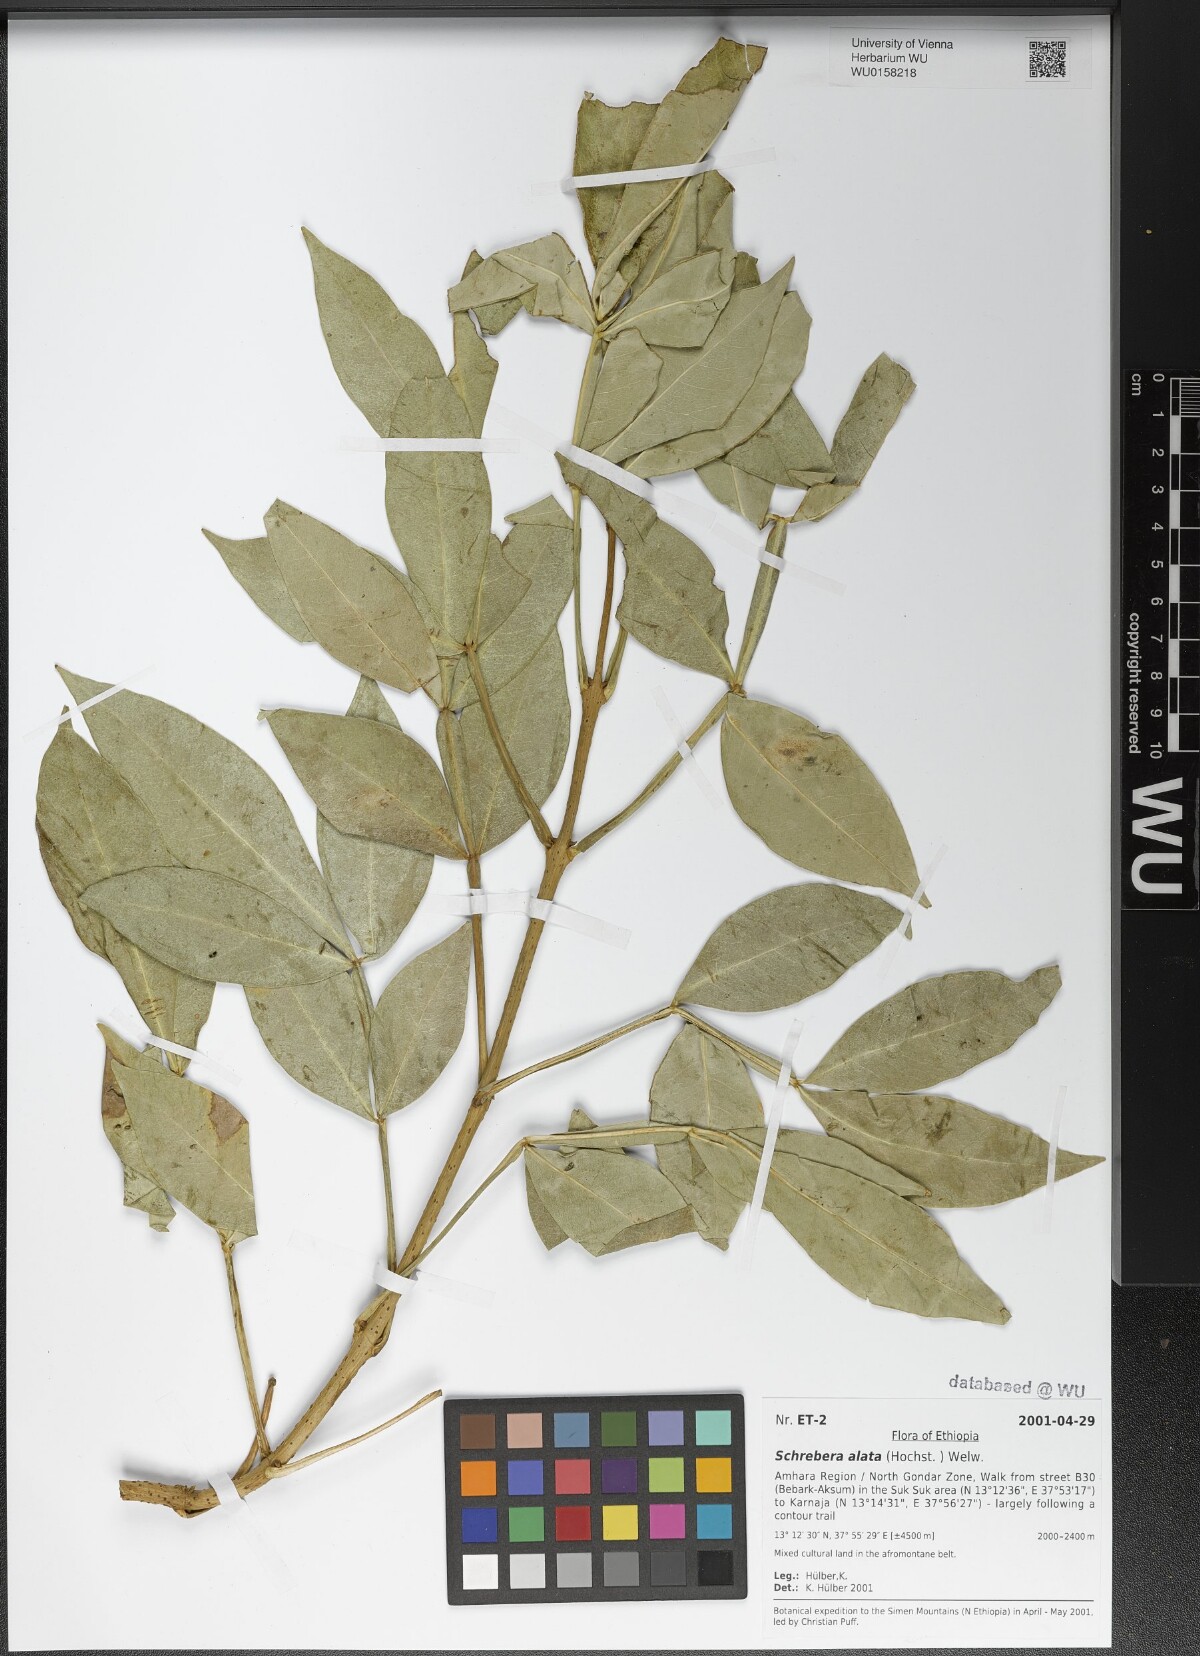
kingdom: Plantae
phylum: Tracheophyta
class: Magnoliopsida
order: Lamiales
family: Oleaceae
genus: Schrebera
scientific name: Schrebera alata
